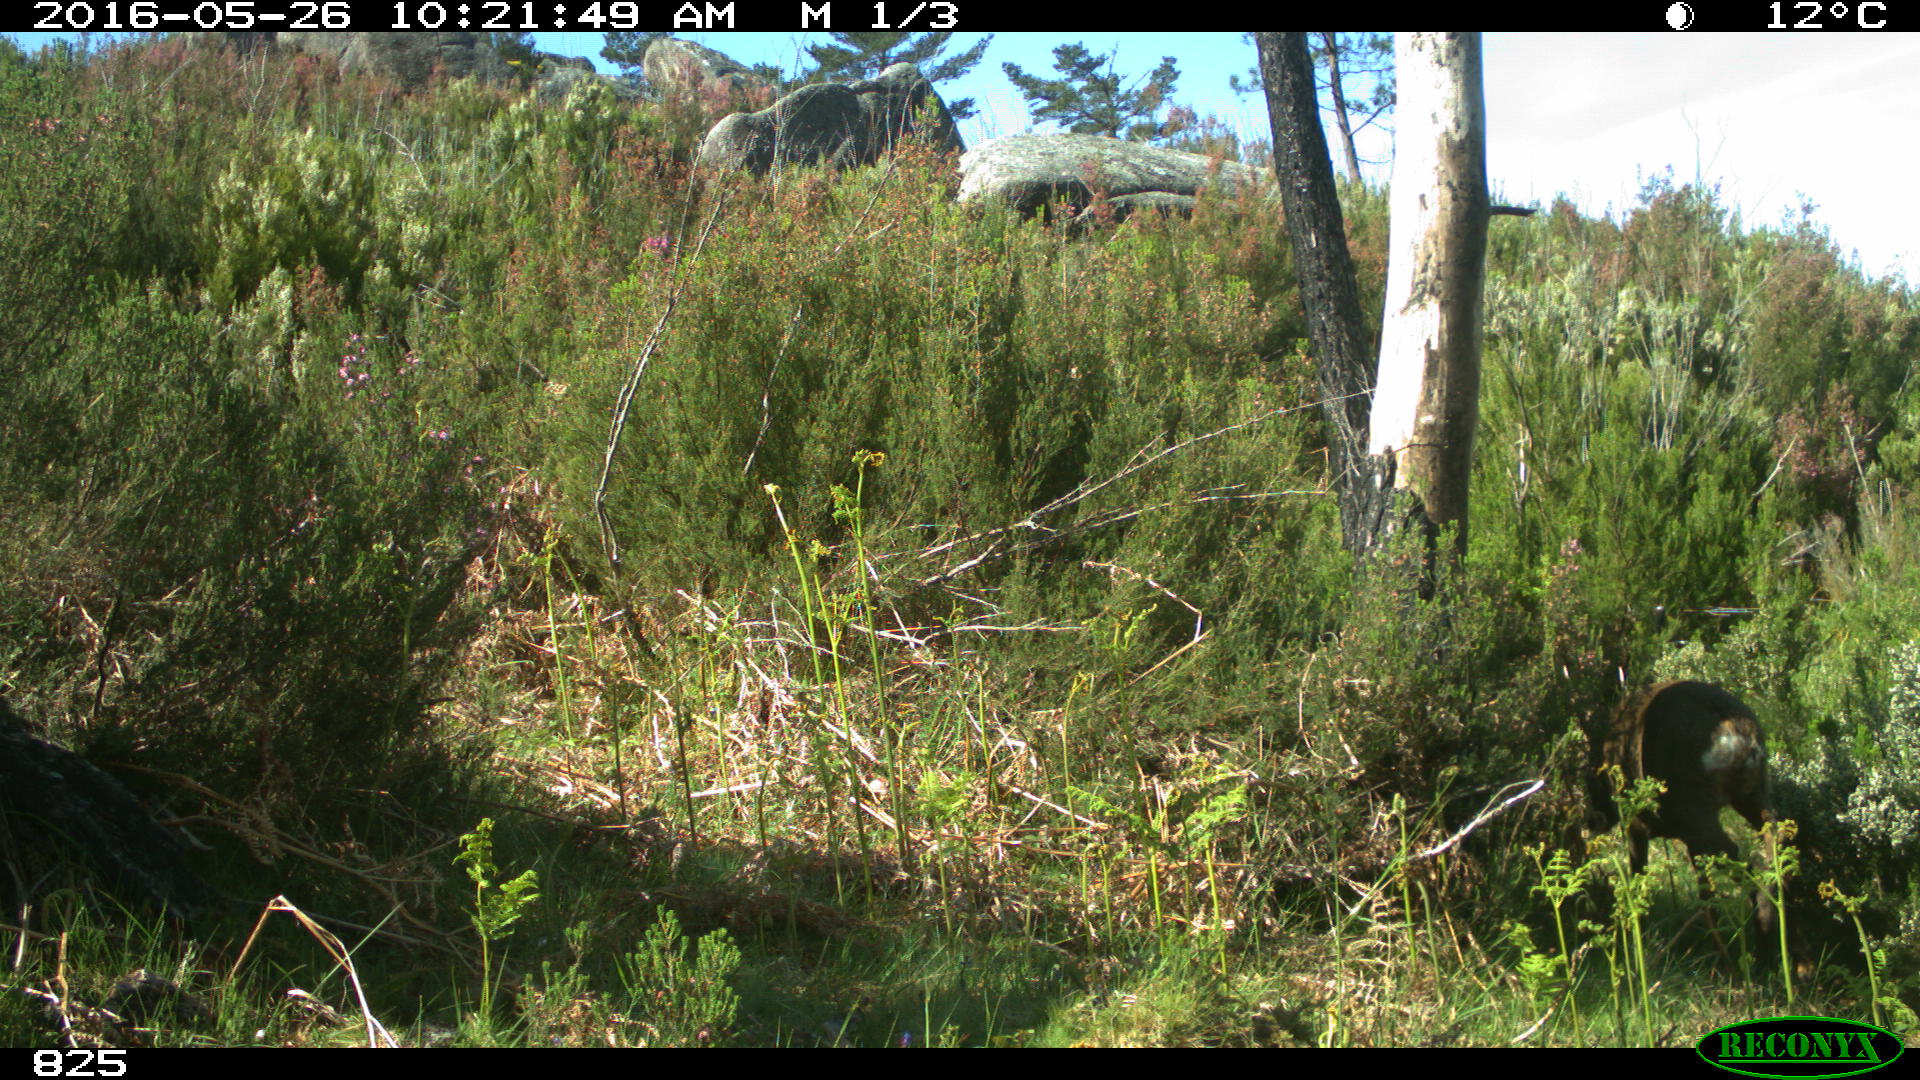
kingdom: Animalia
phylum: Chordata
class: Mammalia
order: Artiodactyla
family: Cervidae
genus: Capreolus
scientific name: Capreolus capreolus
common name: Western roe deer
